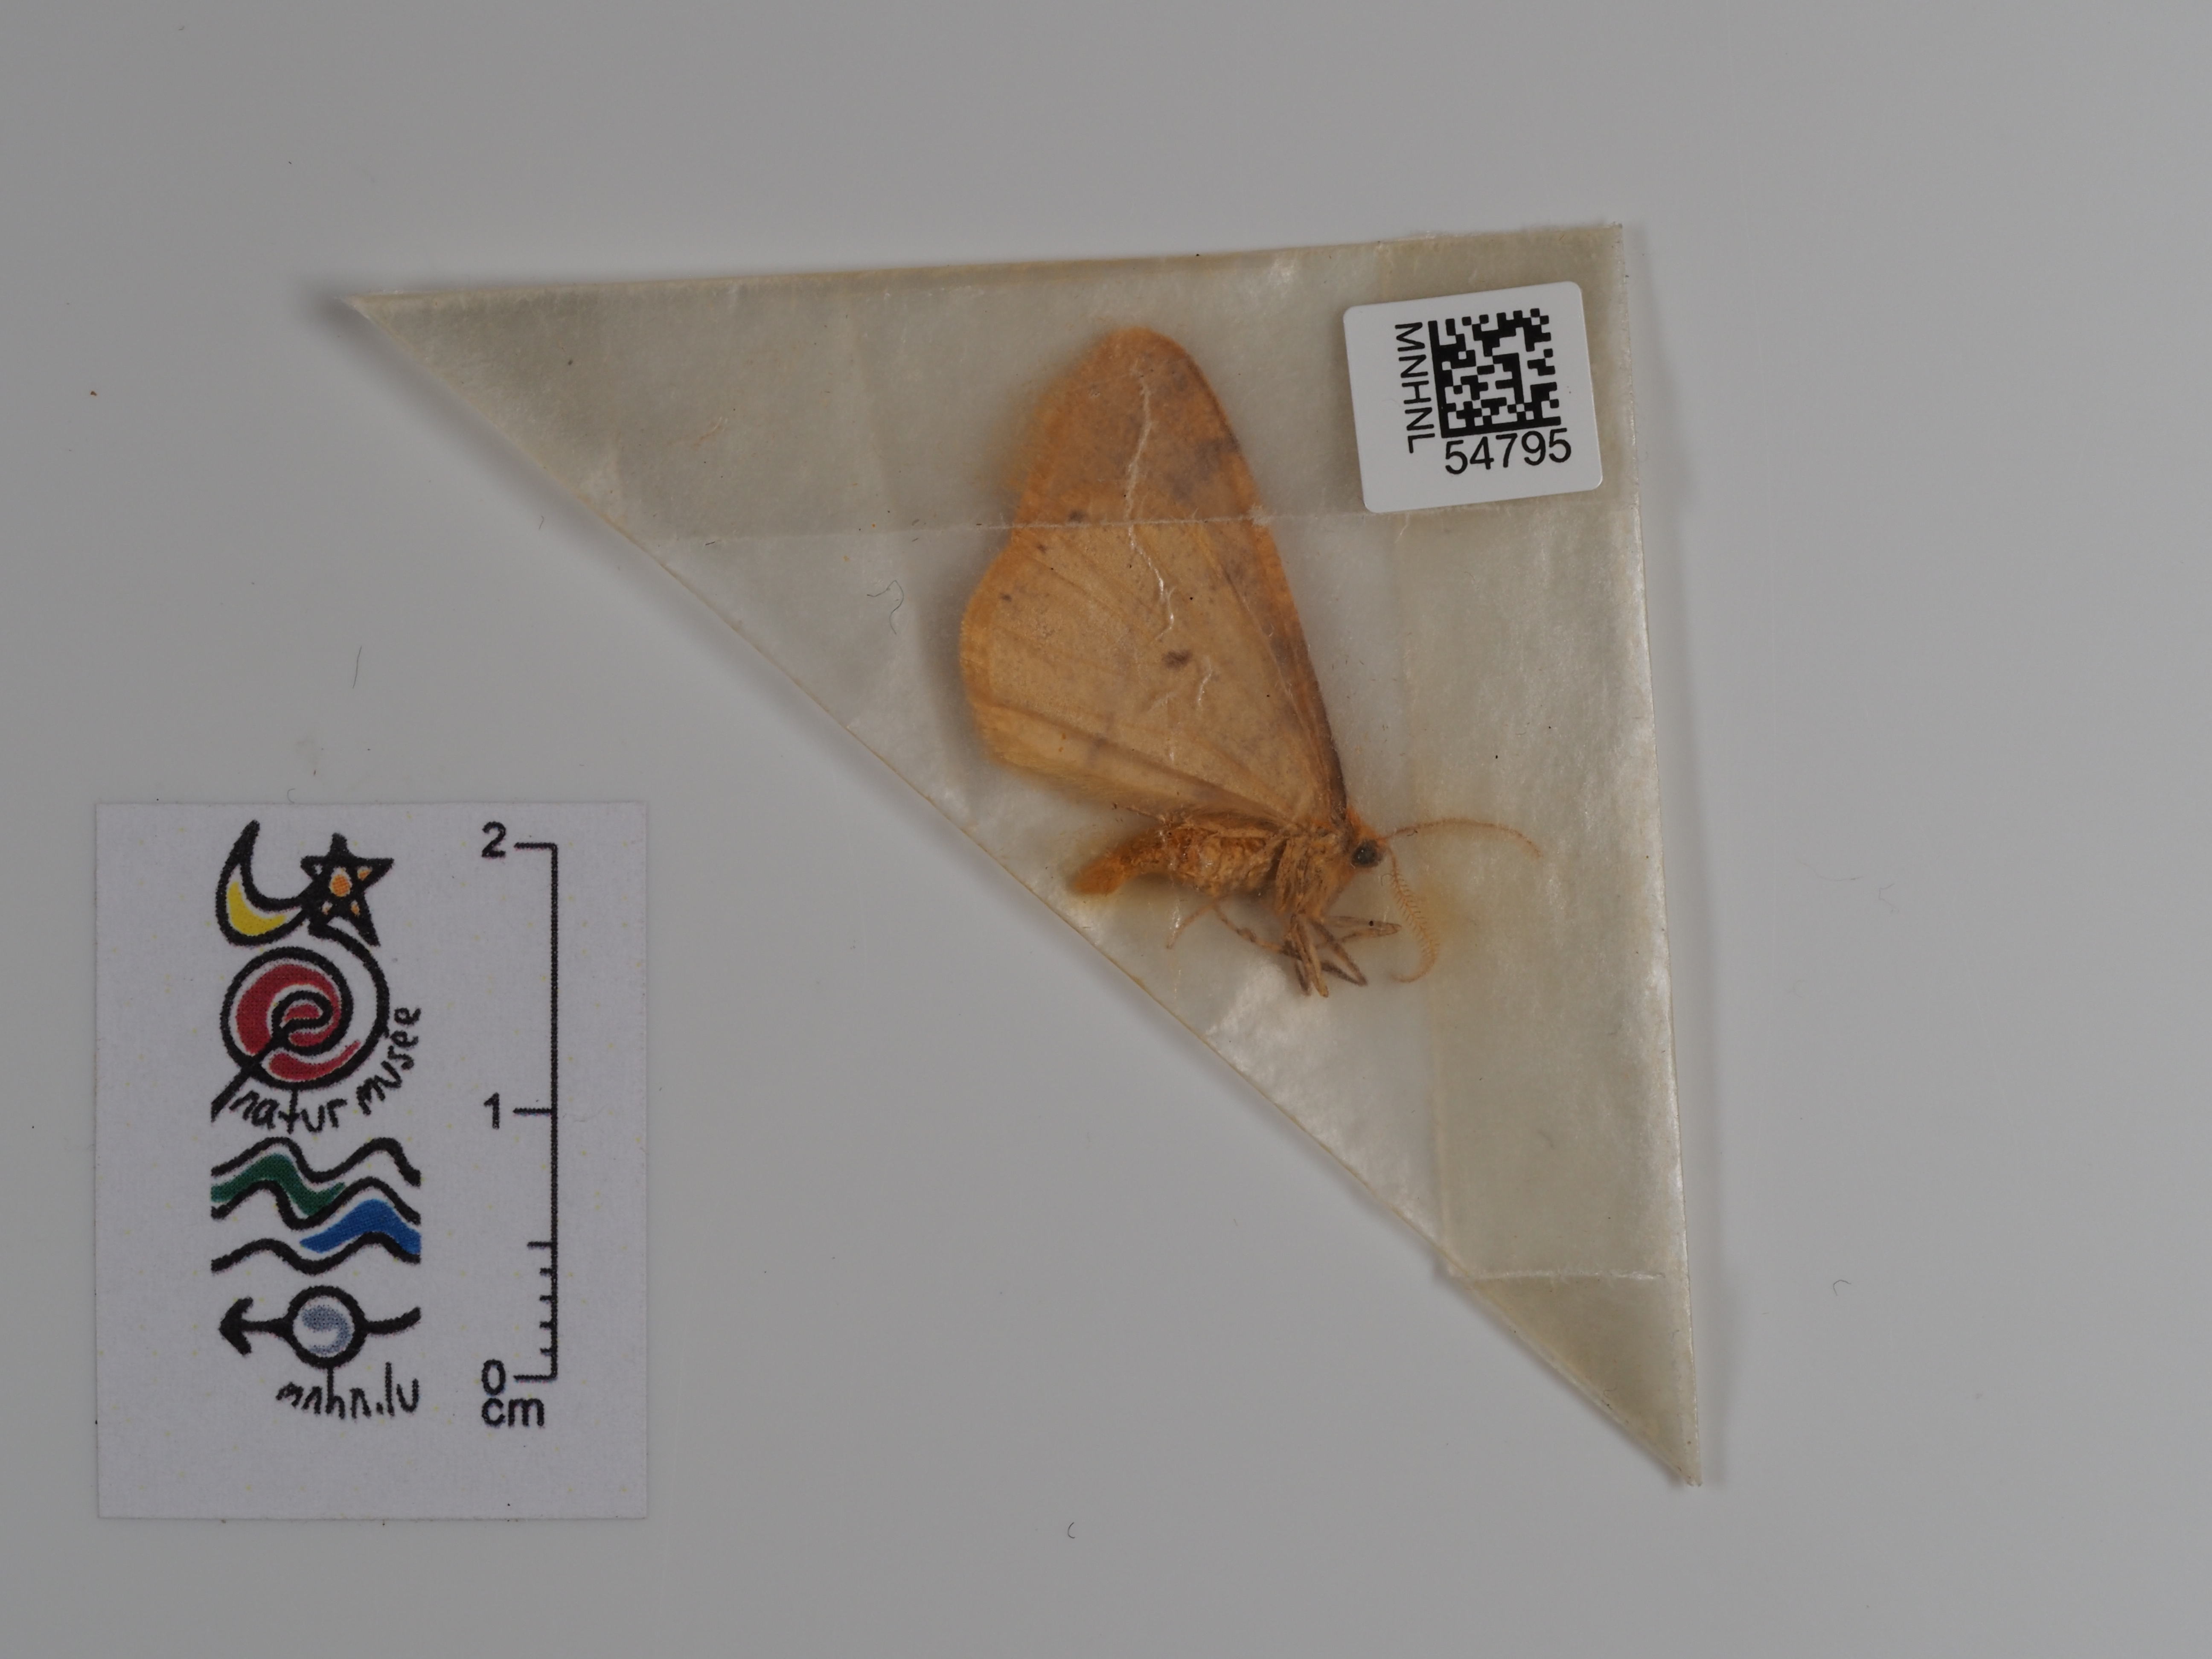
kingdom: Animalia
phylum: Arthropoda
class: Insecta
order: Lepidoptera
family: Geometridae
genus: Agriopis
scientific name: Agriopis aurantiaria
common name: Scarce umber
